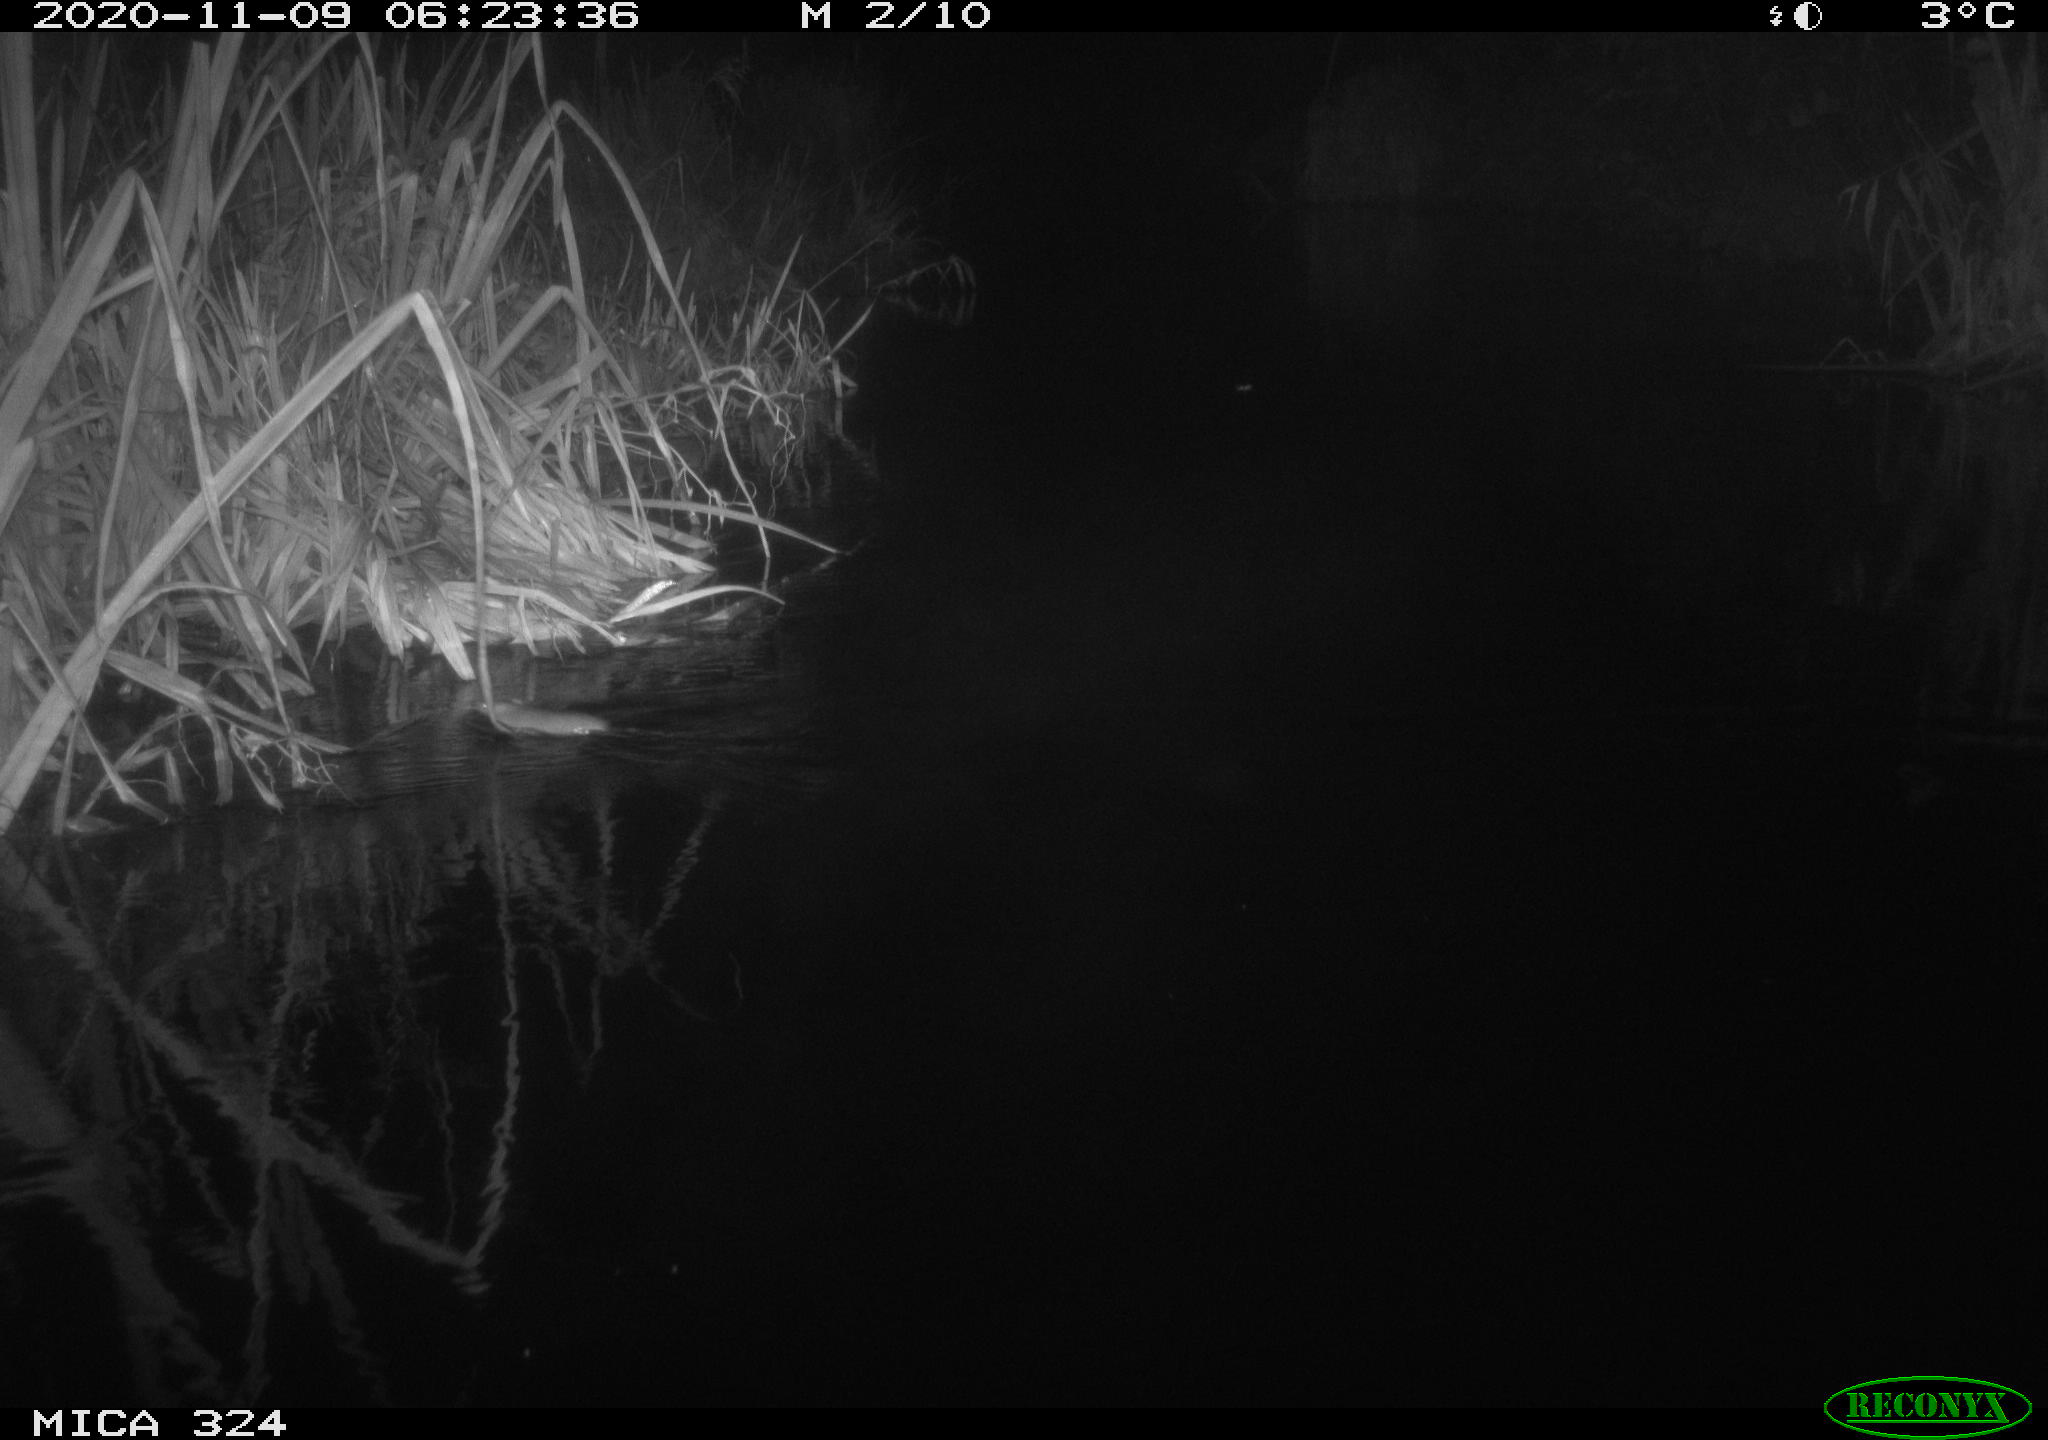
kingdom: Animalia
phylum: Chordata
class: Mammalia
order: Rodentia
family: Muridae
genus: Rattus
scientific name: Rattus norvegicus
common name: Brown rat
